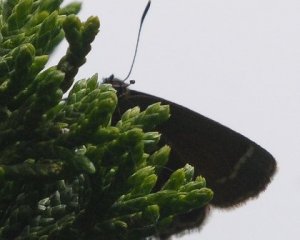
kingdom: Animalia
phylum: Arthropoda
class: Insecta
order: Lepidoptera
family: Lycaenidae
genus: Mitoura
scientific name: Mitoura gryneus
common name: Juniper Hairstreak
